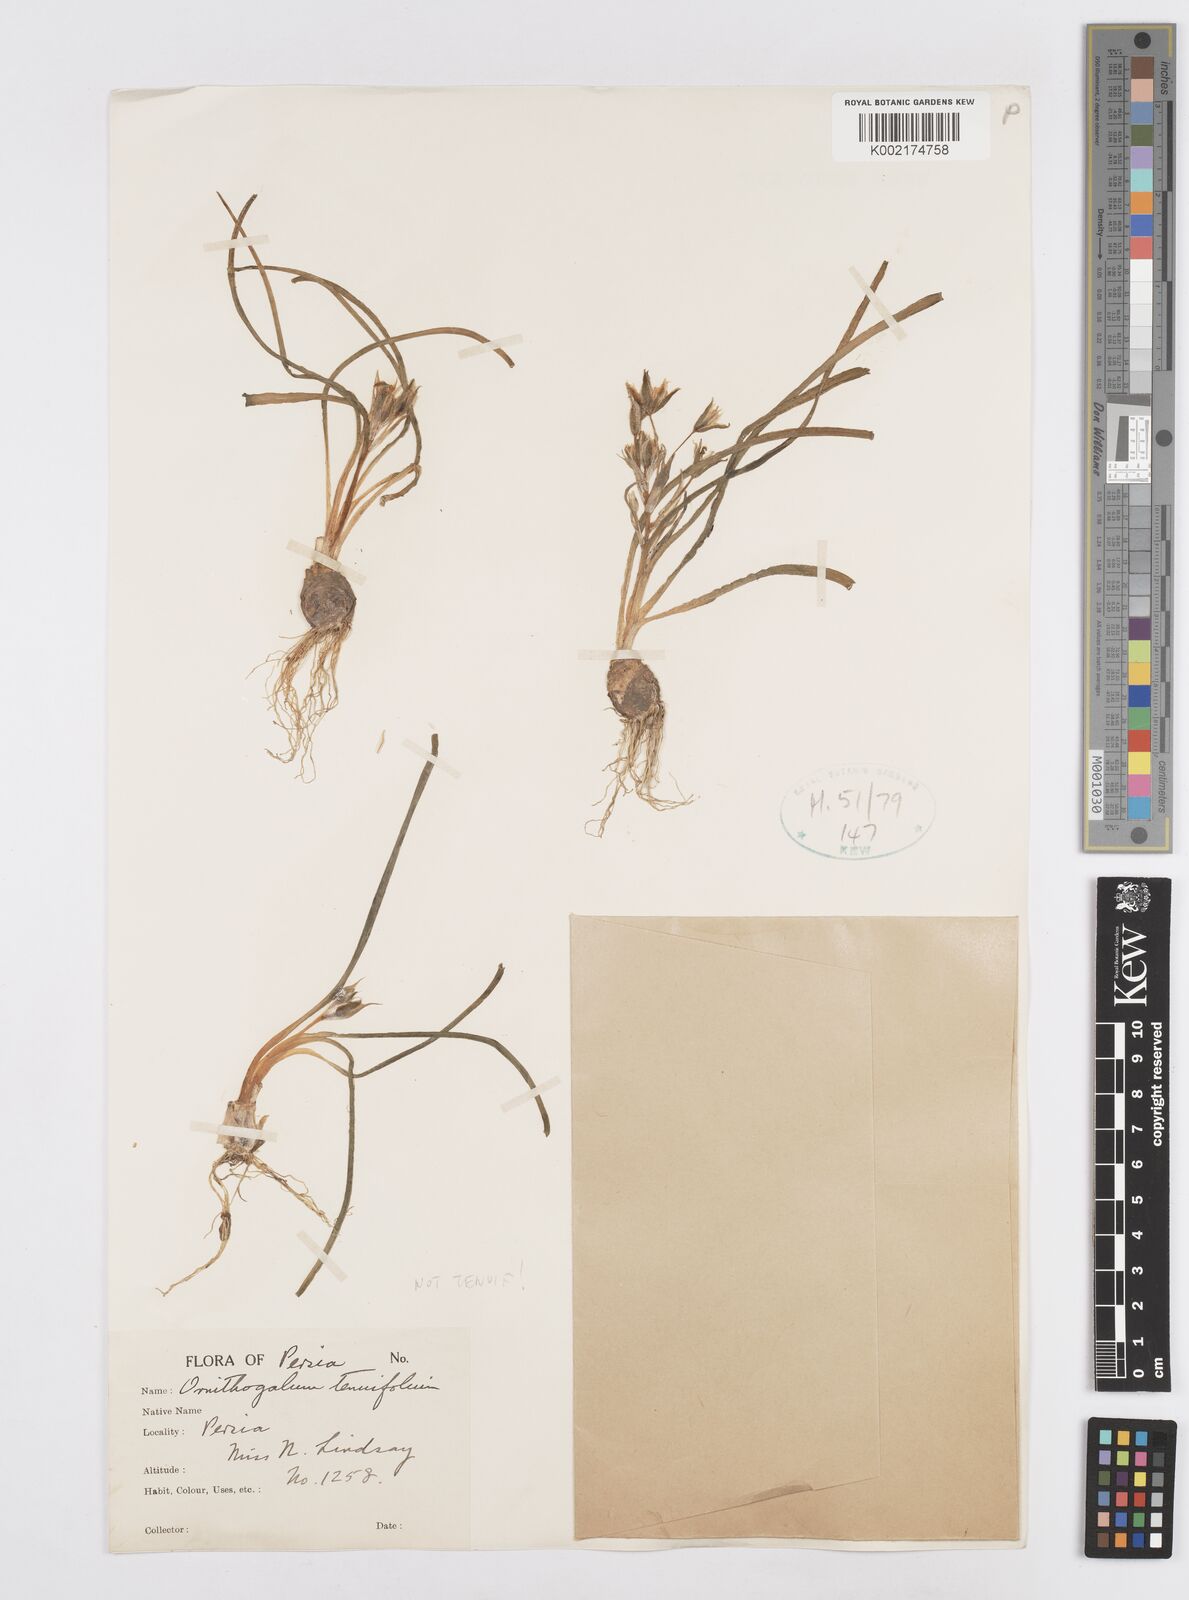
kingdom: Plantae
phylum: Tracheophyta
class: Liliopsida
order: Asparagales
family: Asparagaceae
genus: Ornithogalum
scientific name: Ornithogalum
